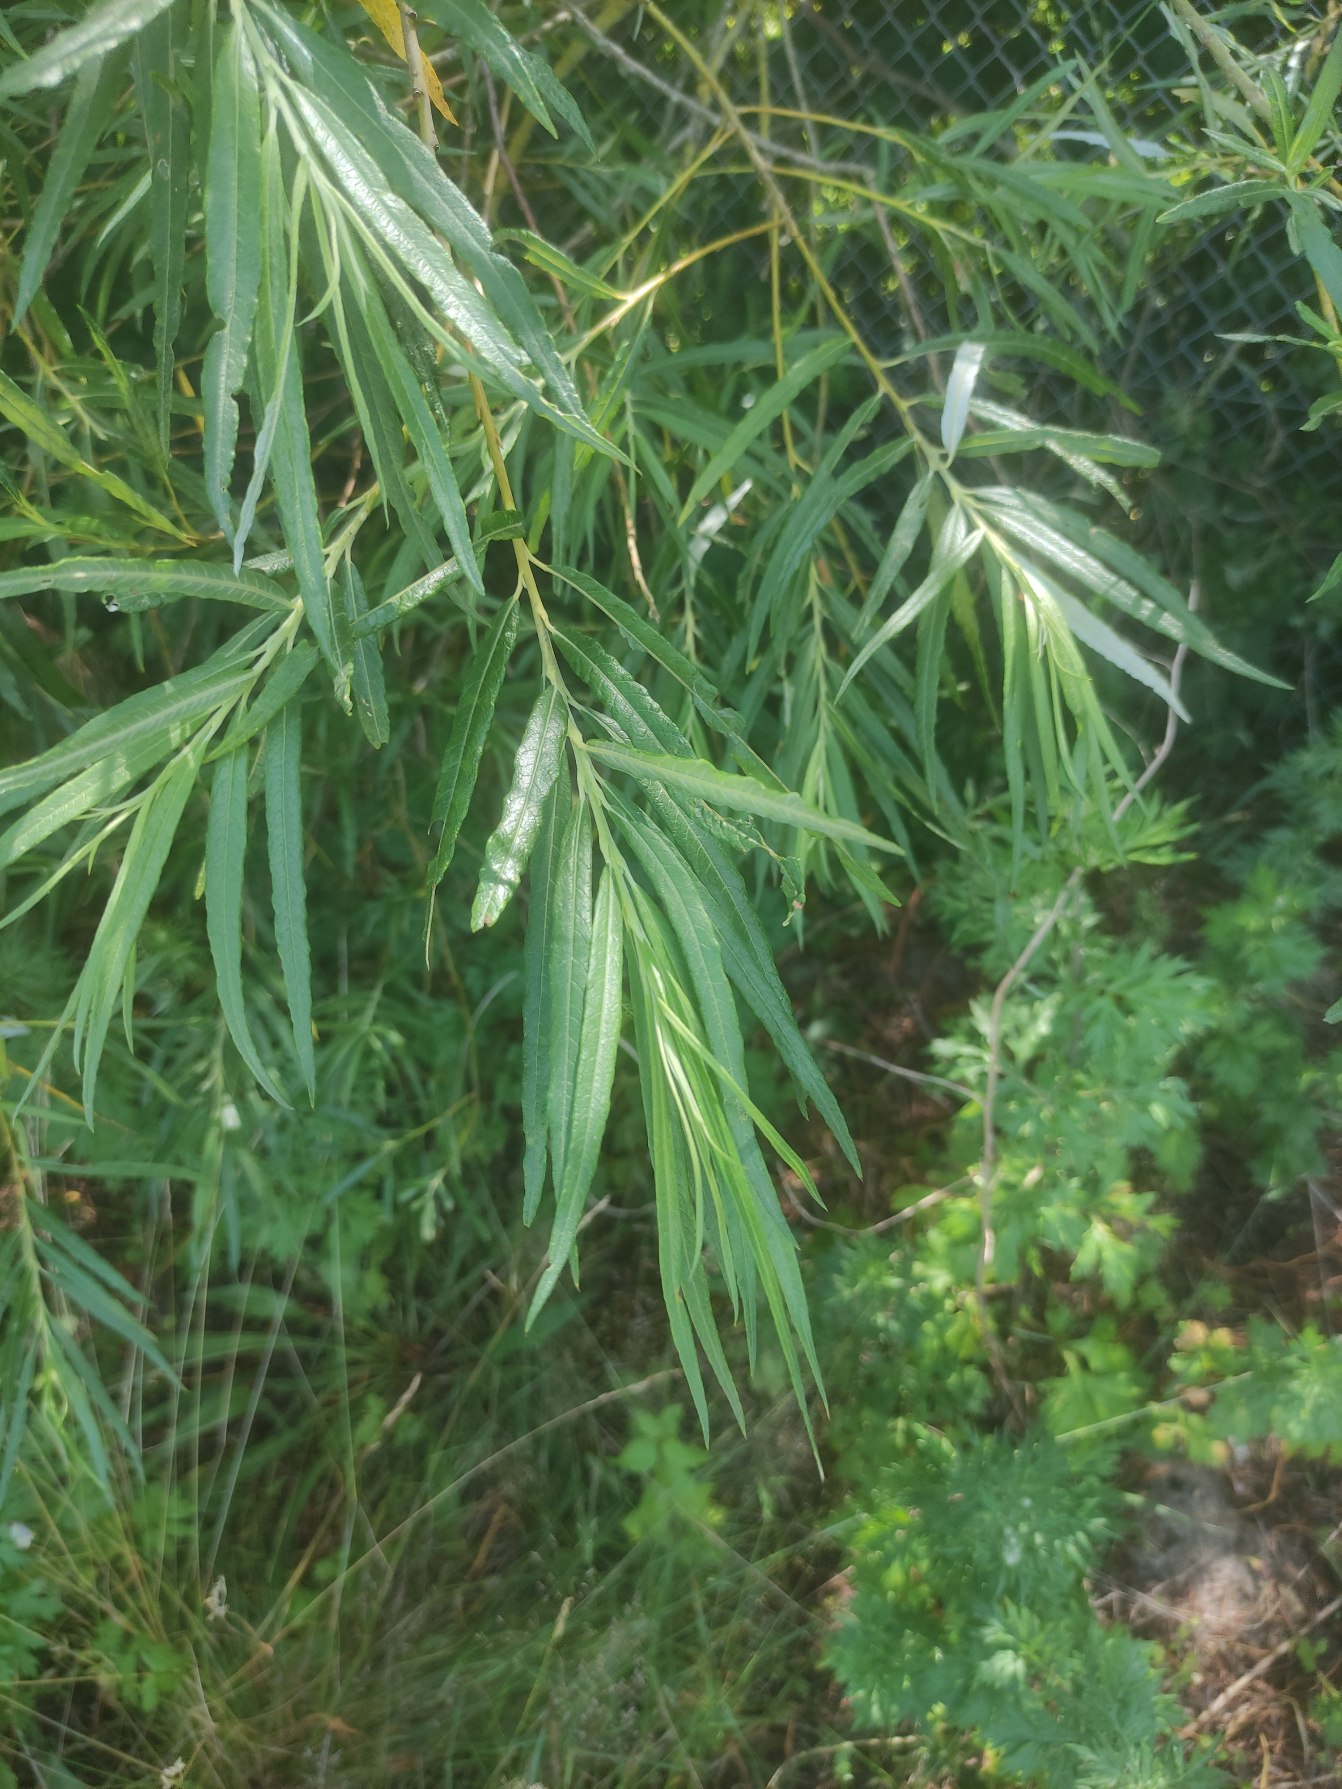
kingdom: Plantae
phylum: Tracheophyta
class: Magnoliopsida
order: Malpighiales
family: Salicaceae
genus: Salix
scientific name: Salix viminalis
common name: Bånd-pil
